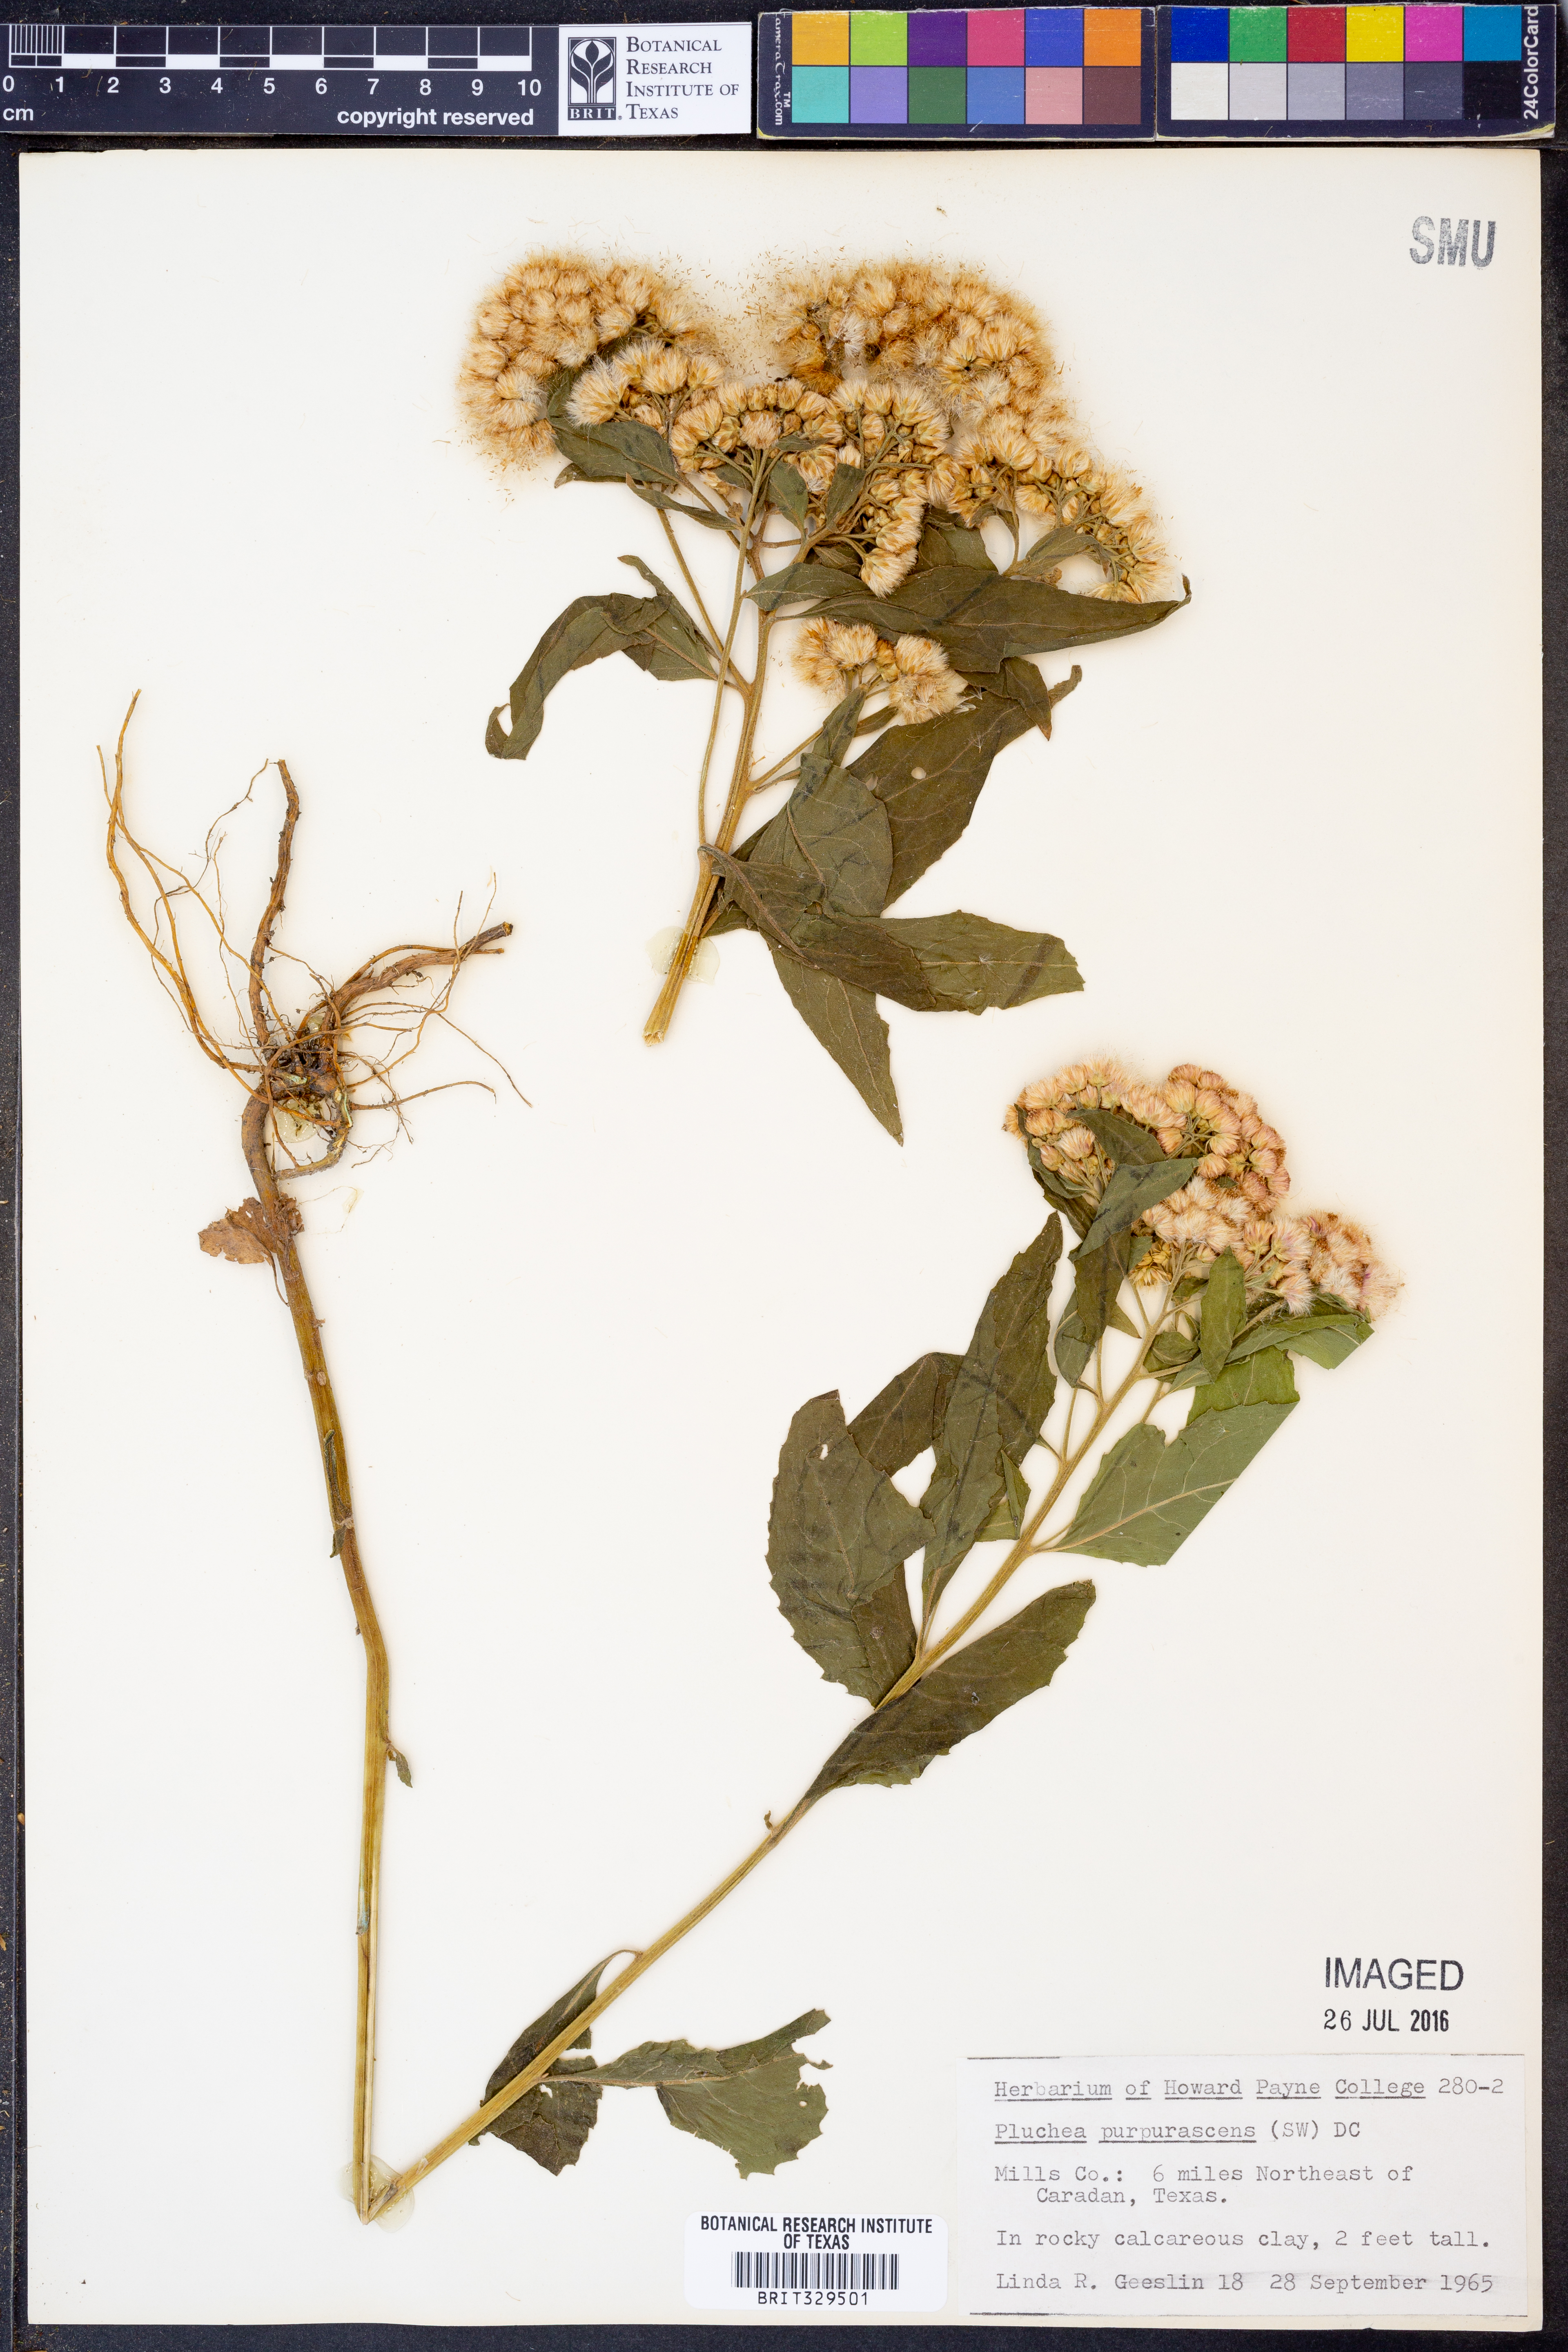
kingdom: Plantae
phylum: Tracheophyta
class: Magnoliopsida
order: Asterales
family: Asteraceae
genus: Pluchea
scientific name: Pluchea odorata
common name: Saltmarsh fleabane
